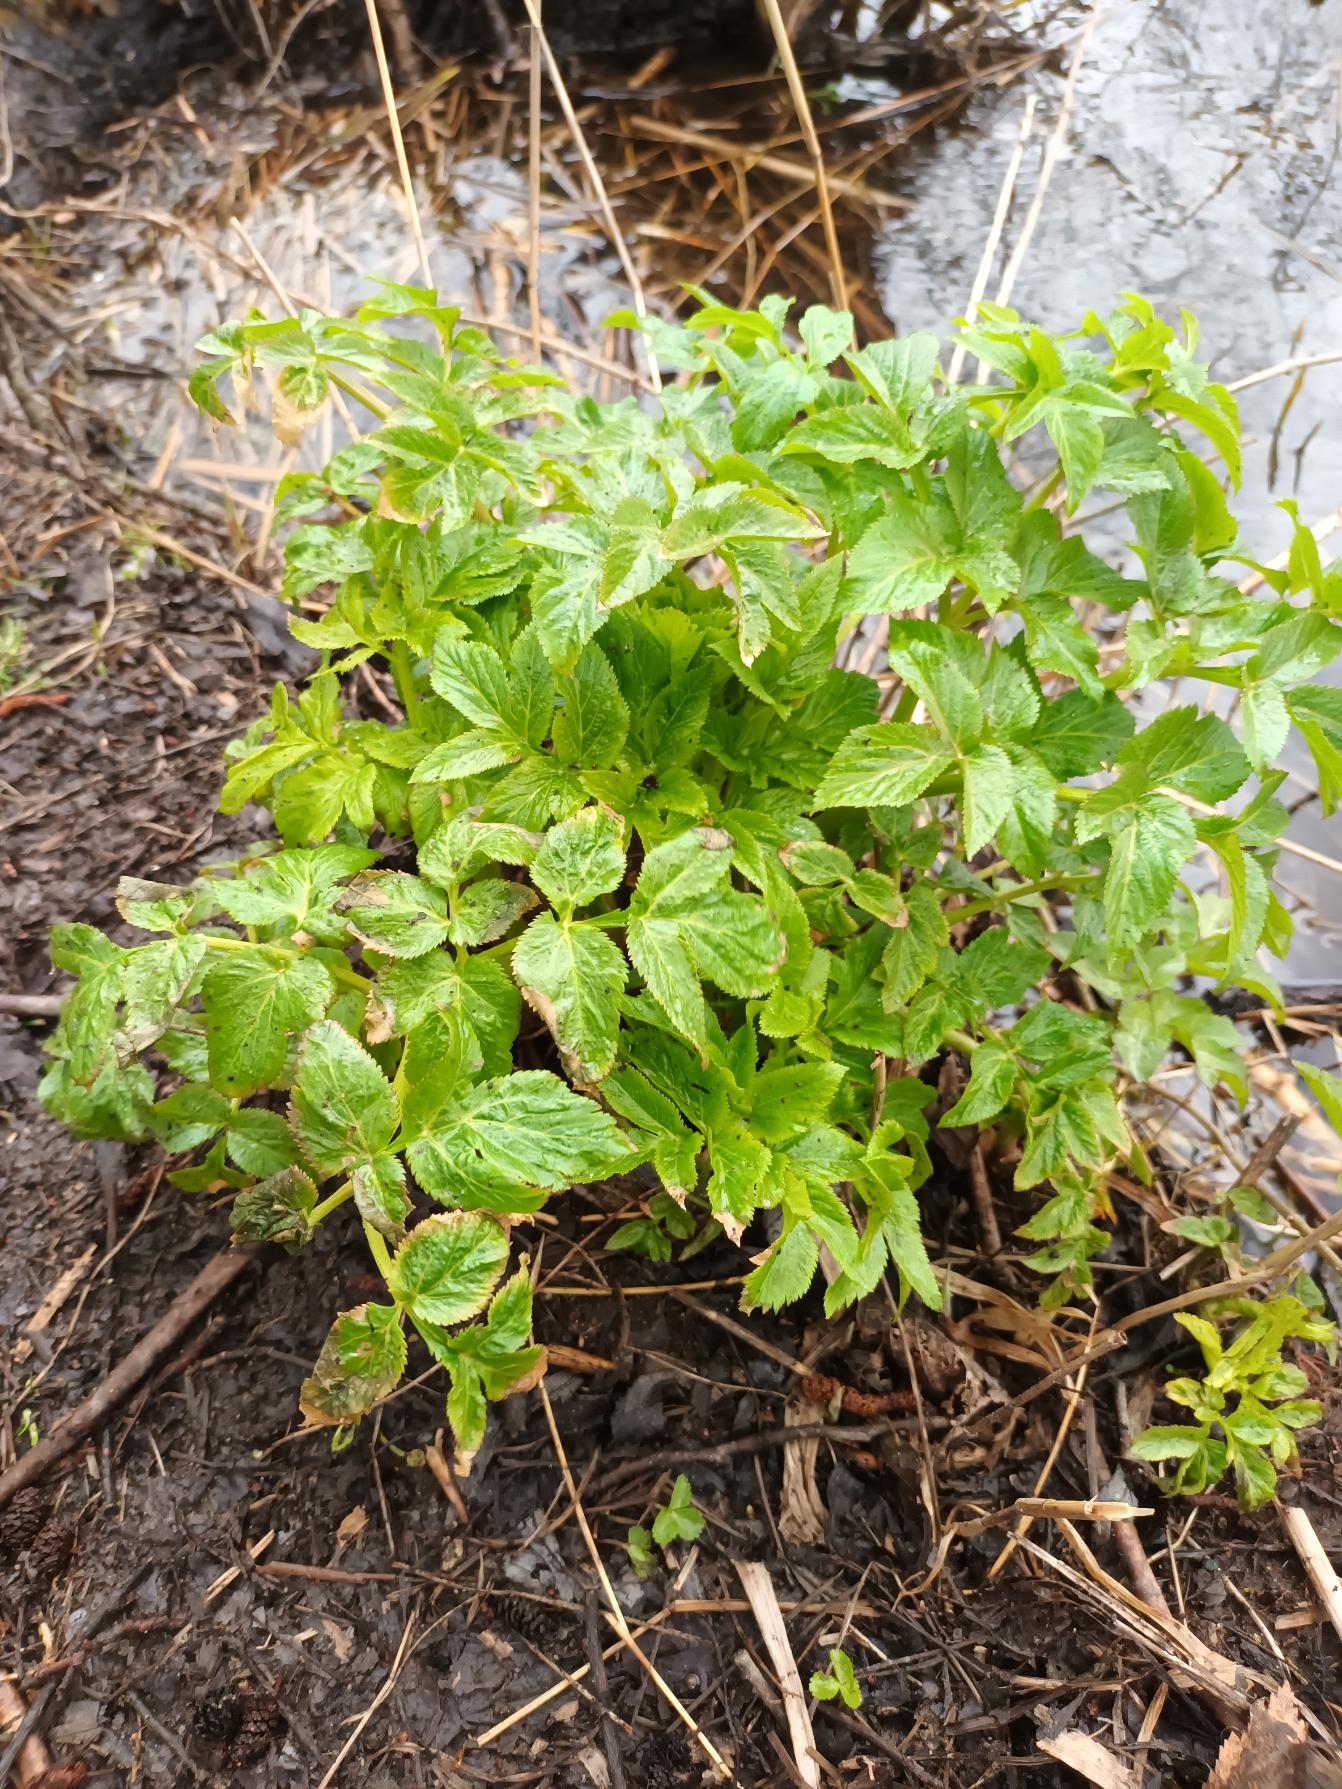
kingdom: Plantae
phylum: Tracheophyta
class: Magnoliopsida
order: Apiales
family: Apiaceae
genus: Angelica
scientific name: Angelica archangelica
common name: Fjeld-kvan
